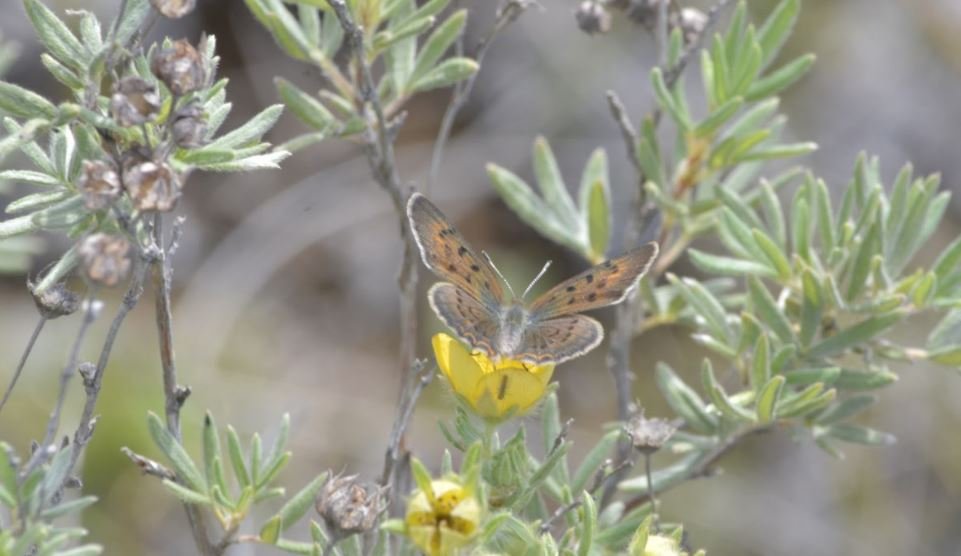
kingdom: Animalia
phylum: Arthropoda
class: Insecta
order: Lepidoptera
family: Lycaenidae
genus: Epidemia
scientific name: Epidemia dorcas
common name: Dorcas Copper
